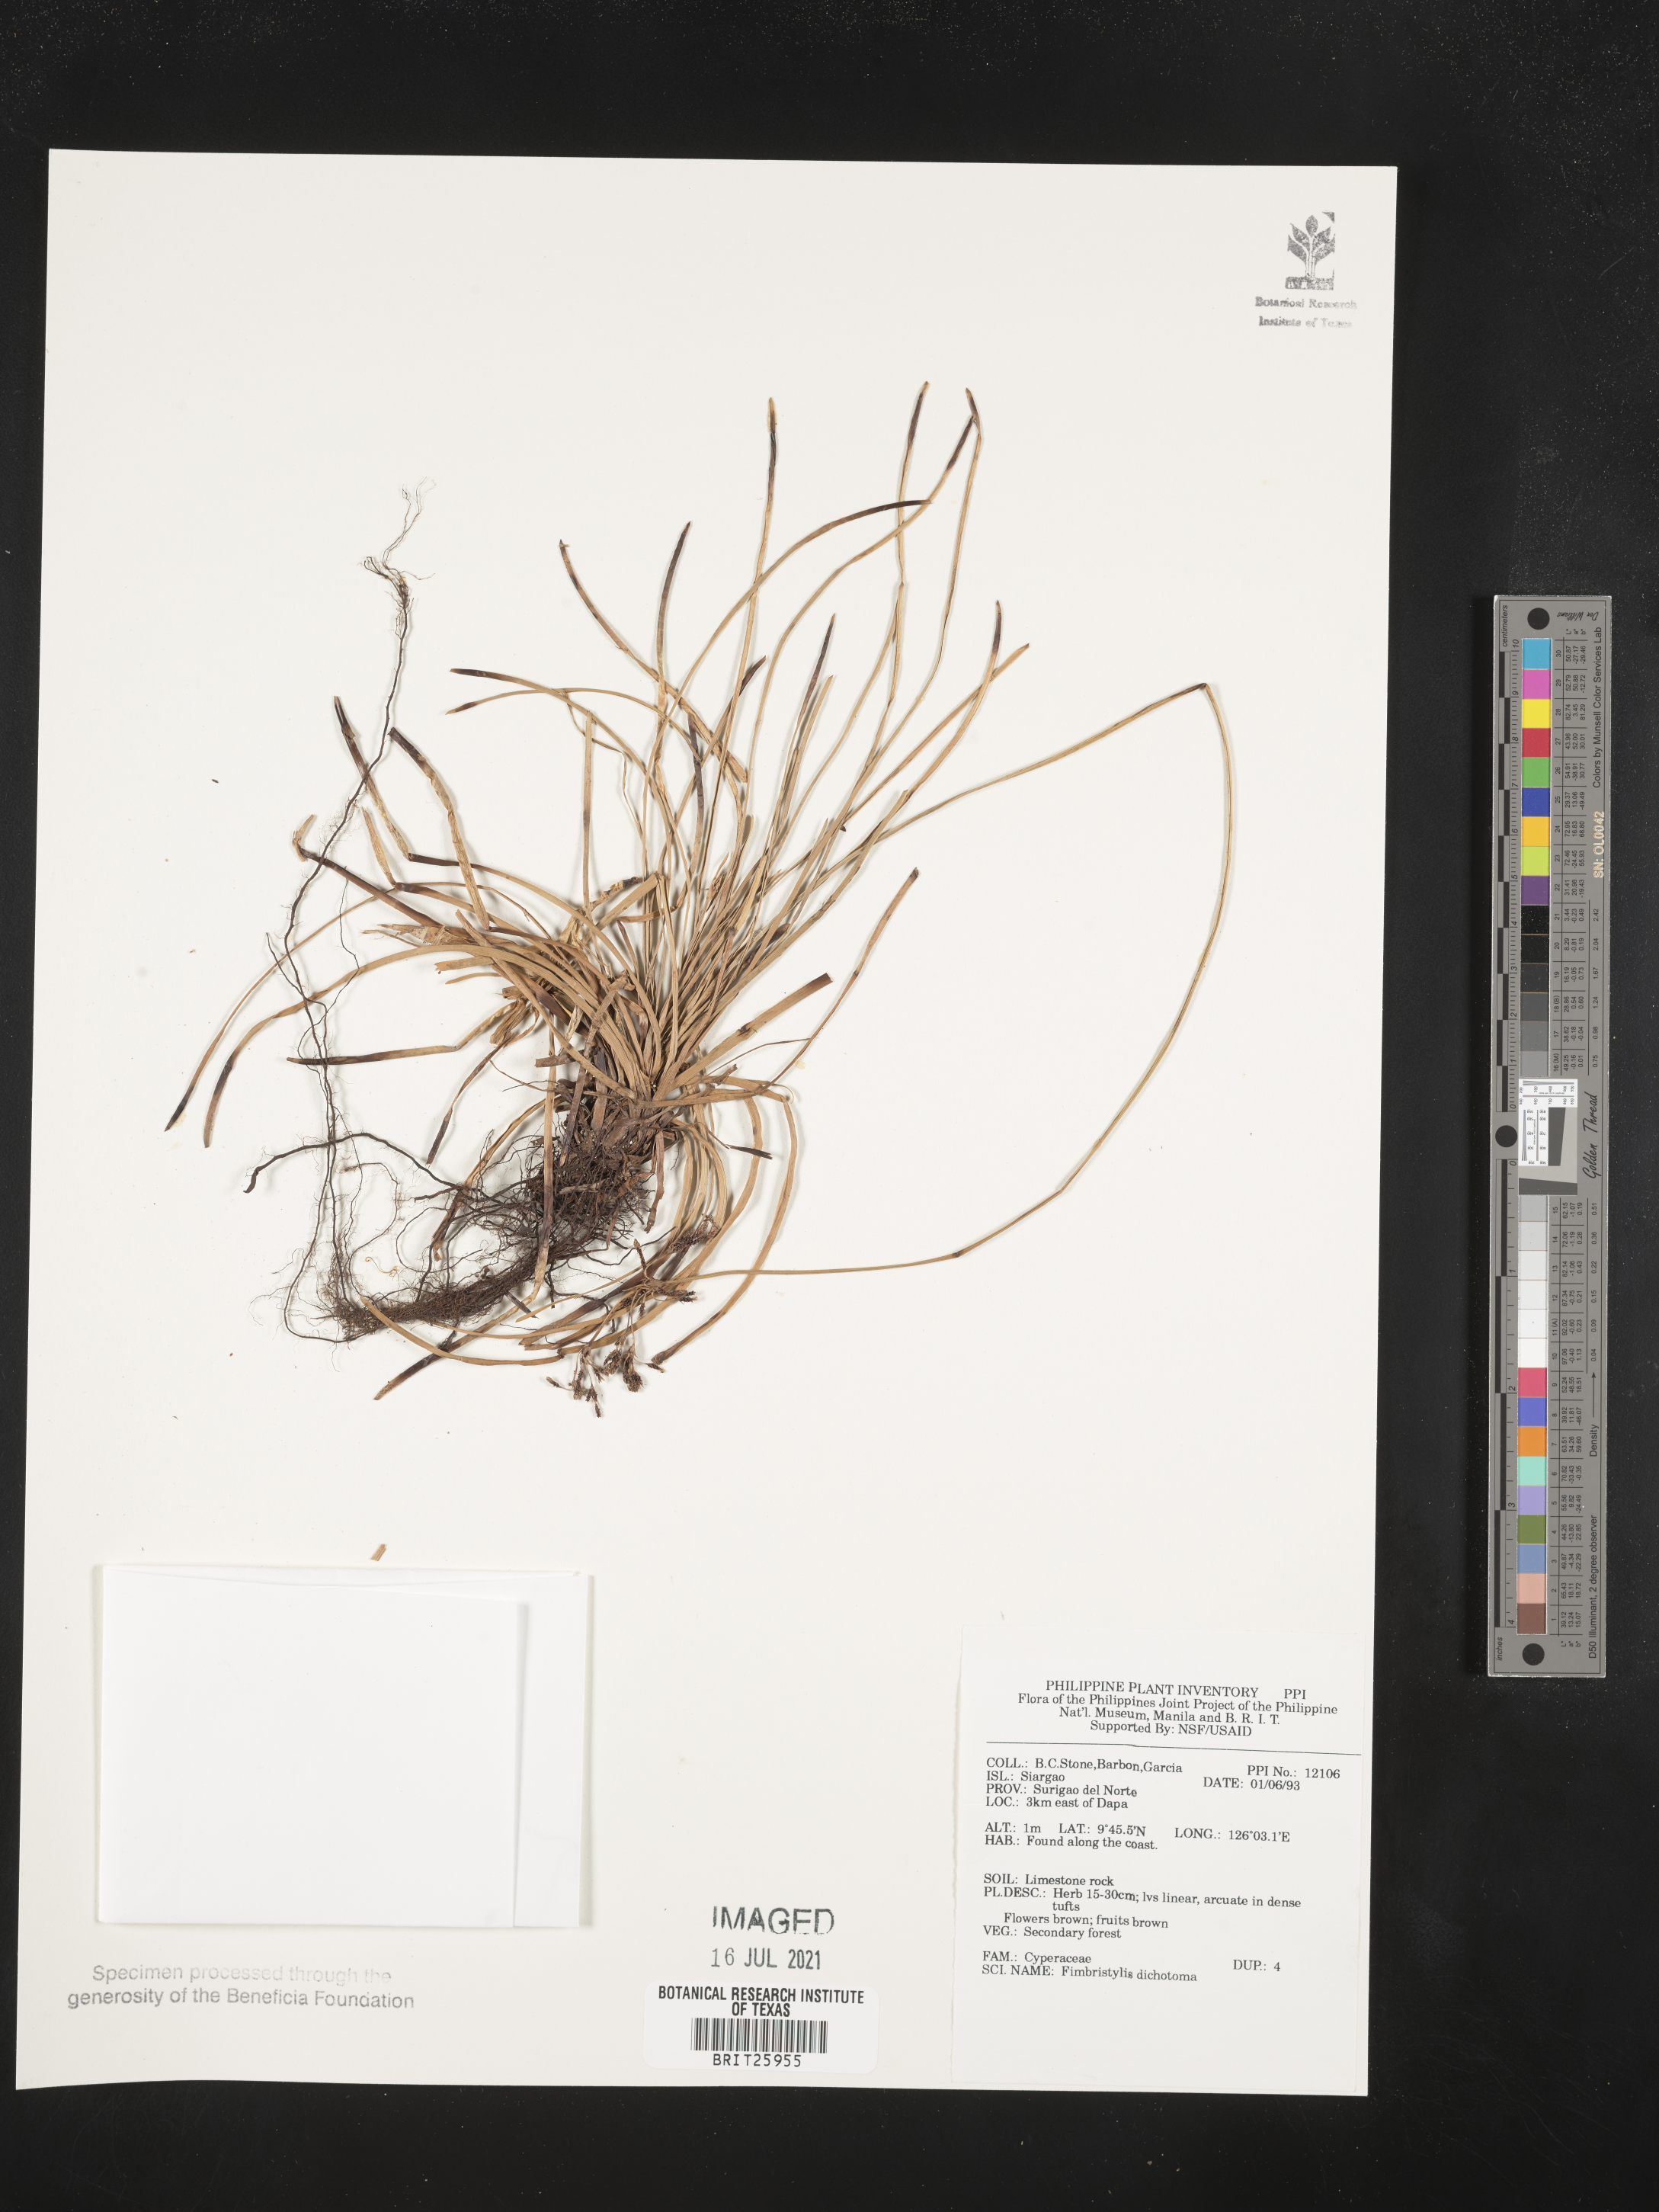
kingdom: Plantae
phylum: Tracheophyta
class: Liliopsida
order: Poales
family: Cyperaceae
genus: Fimbristylis
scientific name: Fimbristylis dichotoma
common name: Forked fimbry
